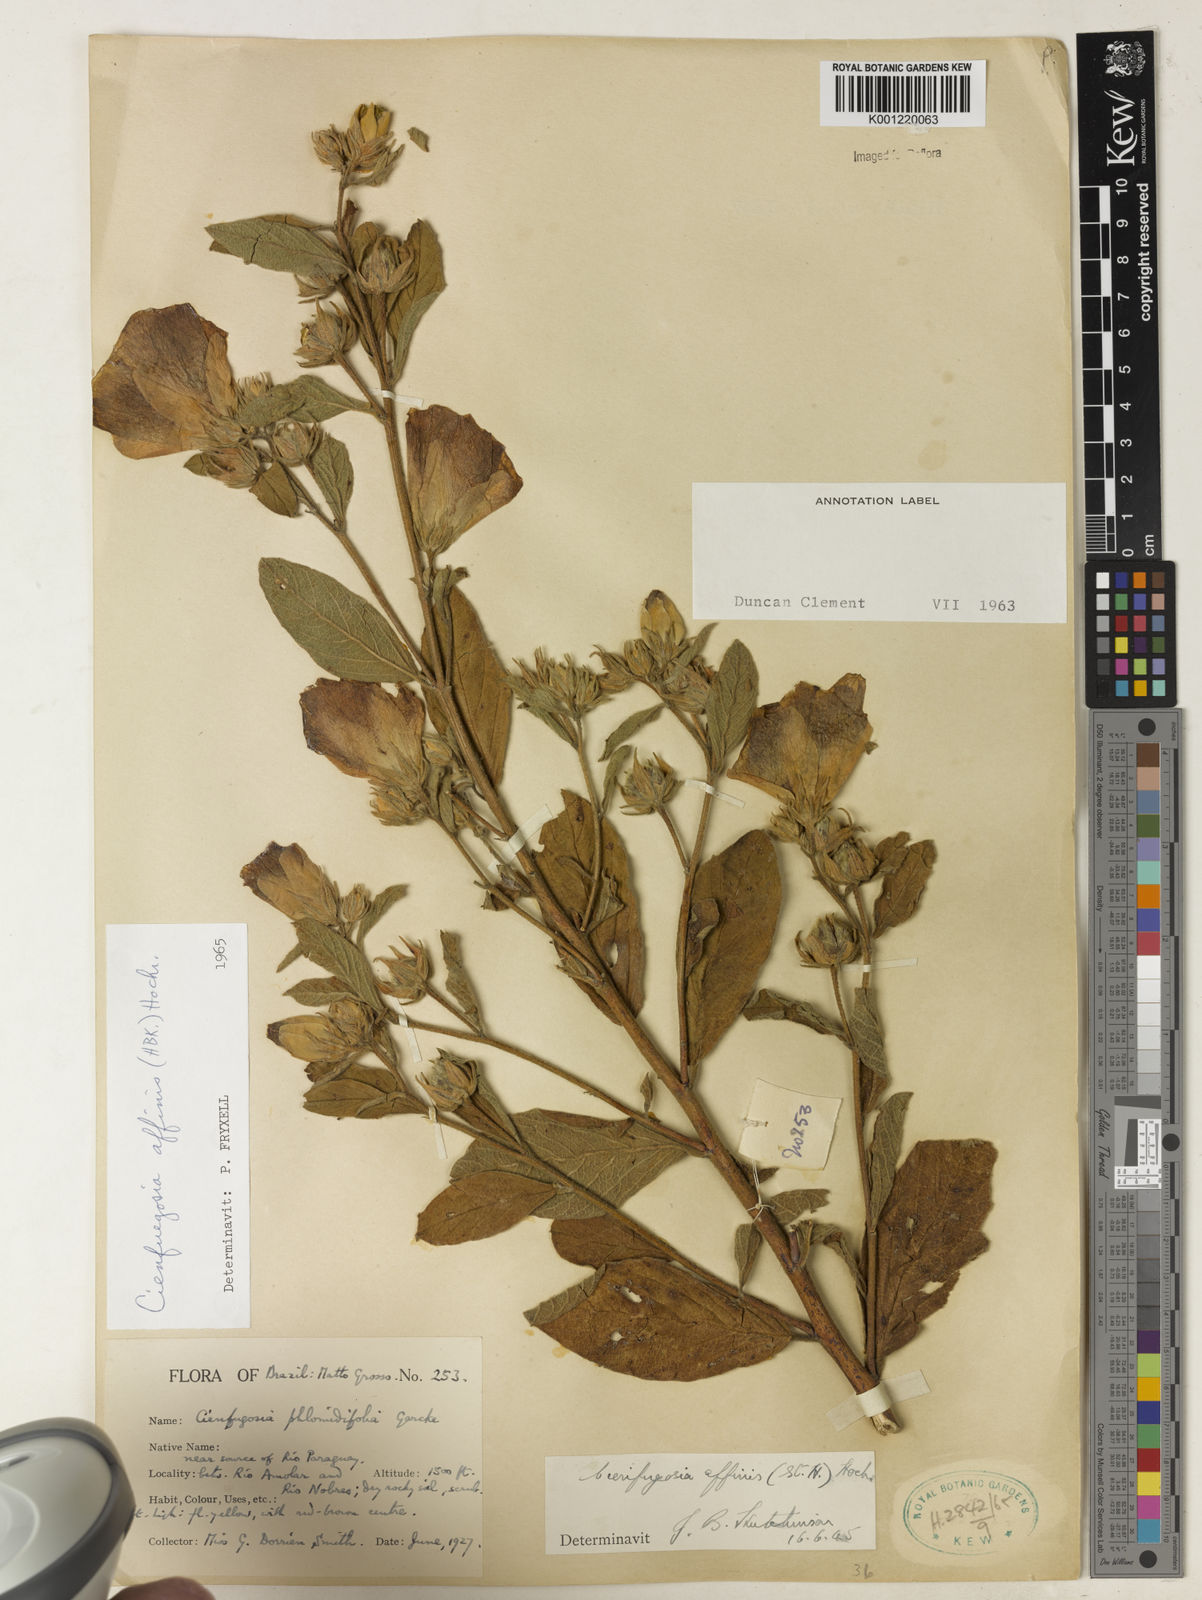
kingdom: Plantae
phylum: Tracheophyta
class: Magnoliopsida
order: Malvales
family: Malvaceae
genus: Cienfuegosia
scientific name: Cienfuegosia affinis
